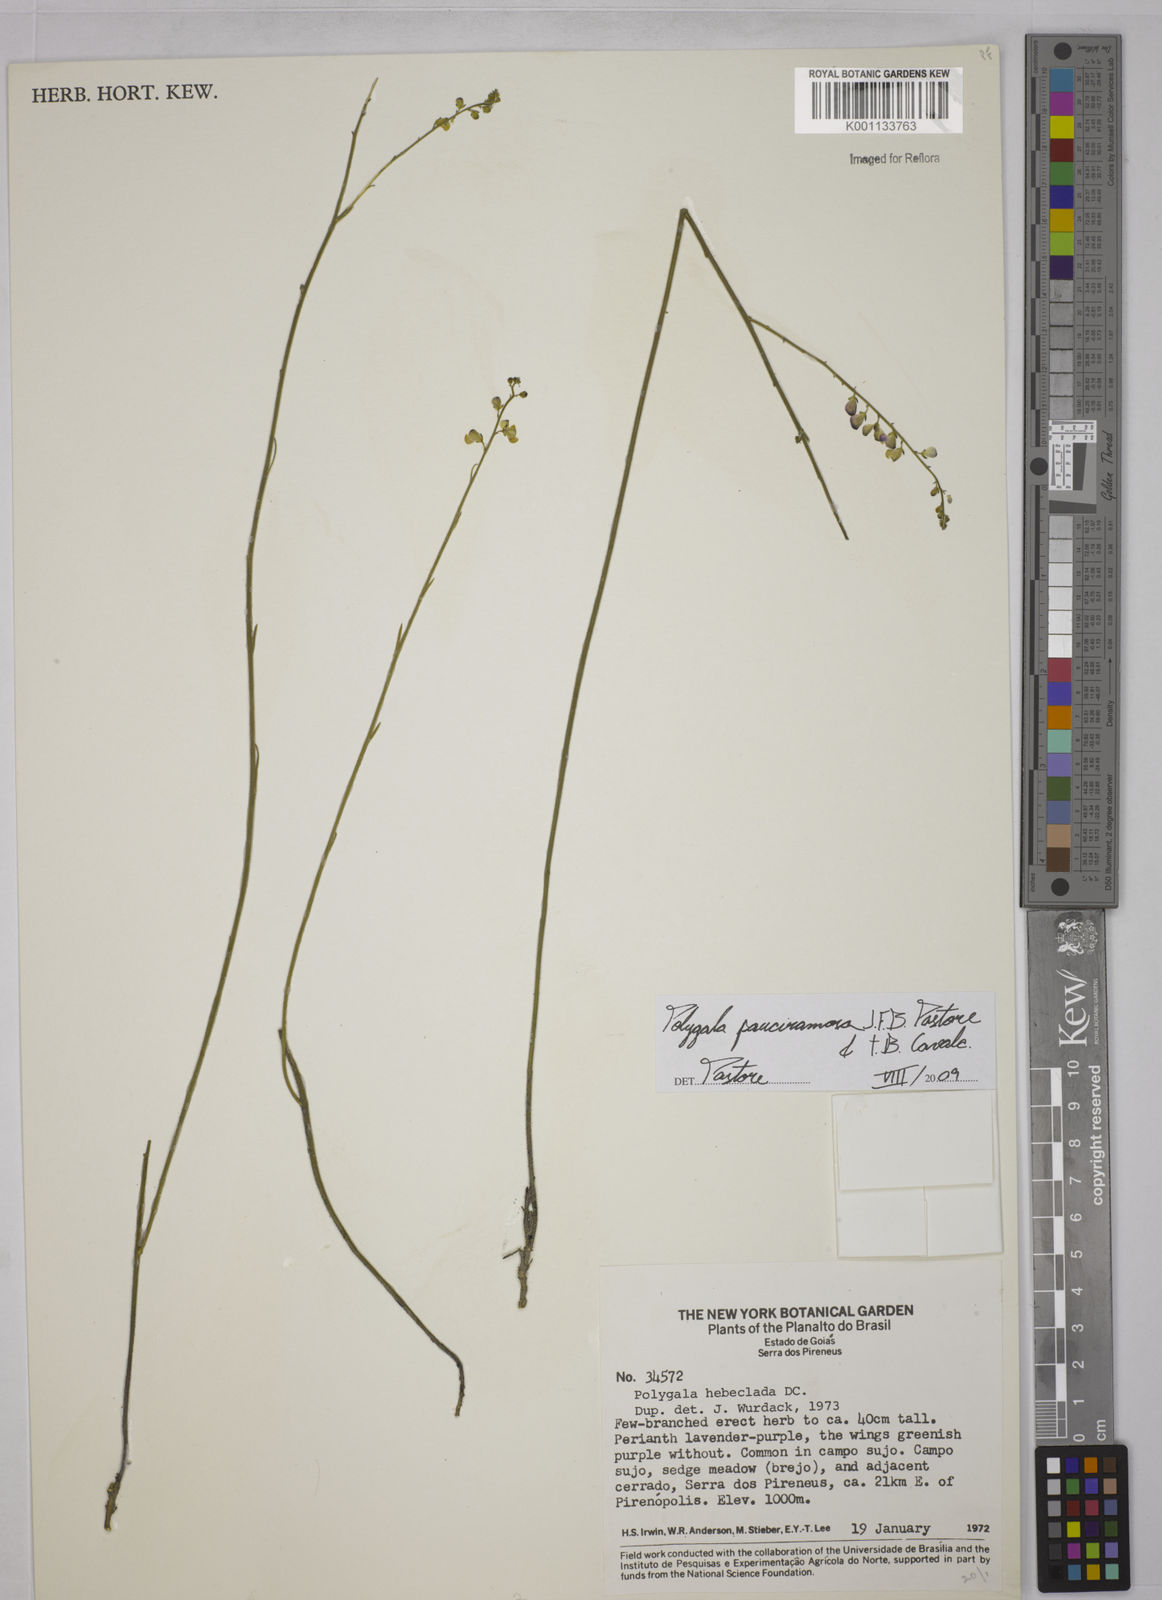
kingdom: Plantae
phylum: Tracheophyta
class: Magnoliopsida
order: Fabales
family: Polygalaceae
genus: Asemeia
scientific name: Asemeia lindmaniana
